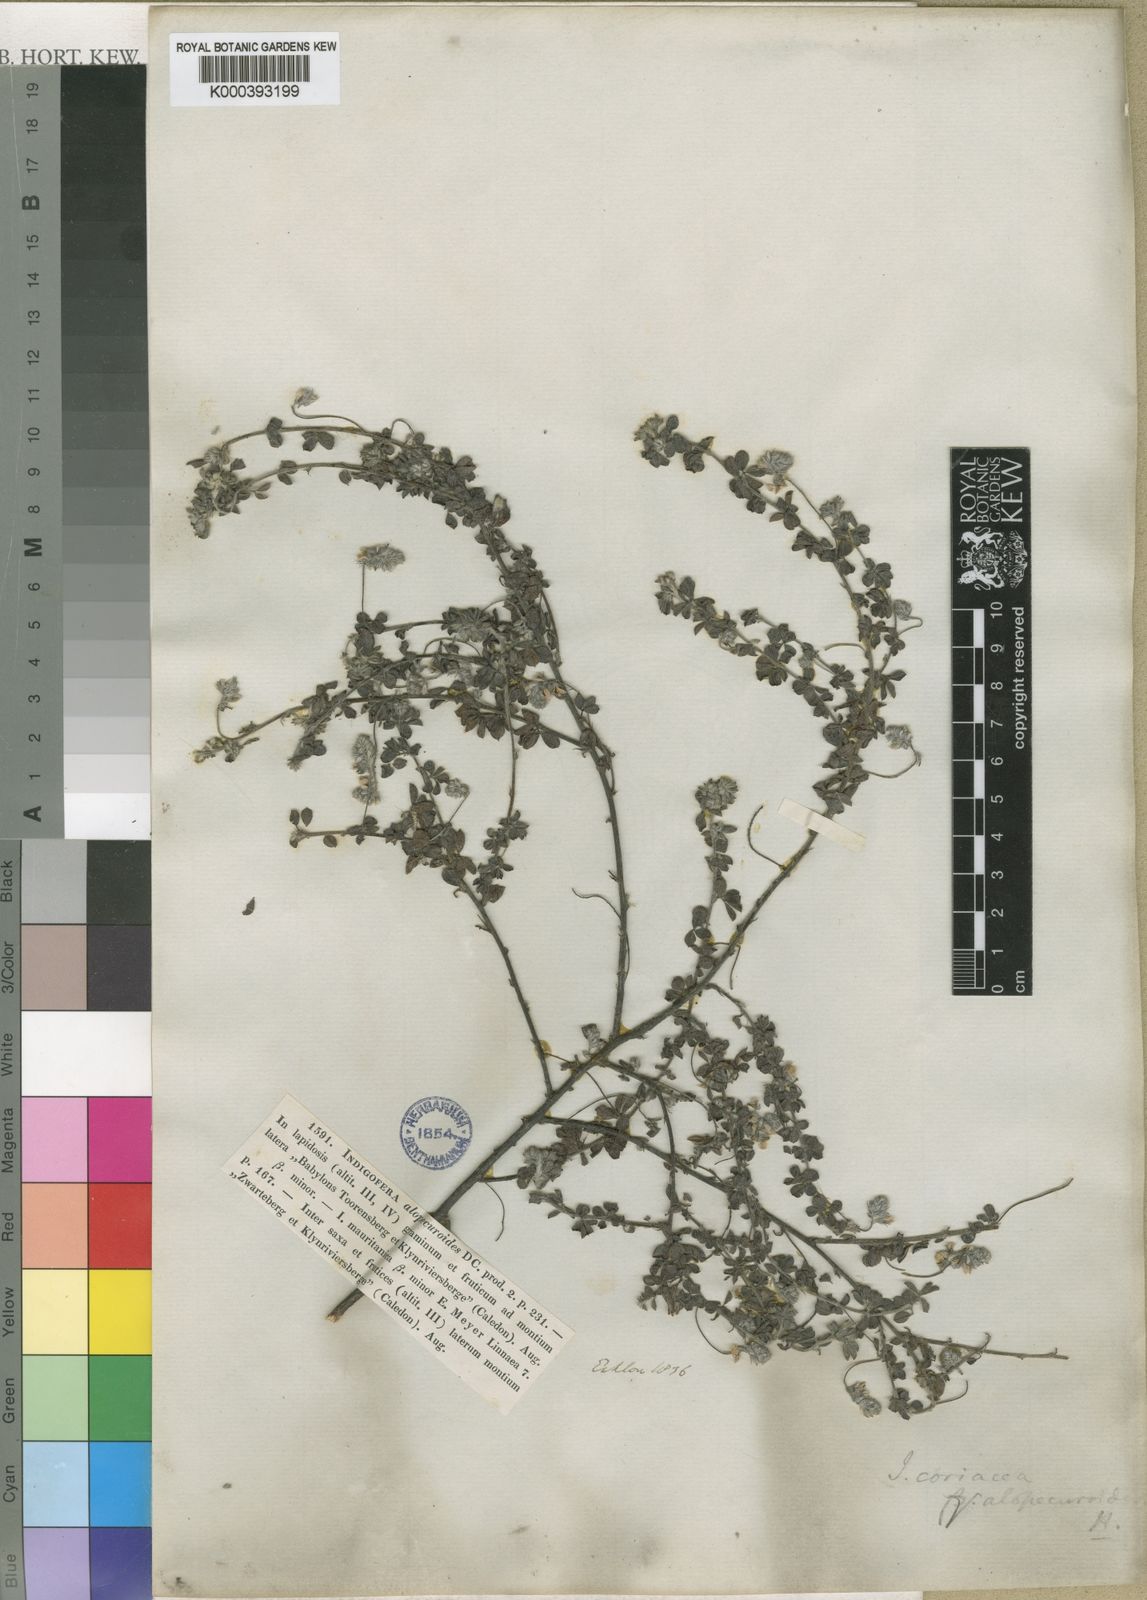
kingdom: Plantae
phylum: Tracheophyta
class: Magnoliopsida
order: Fabales
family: Fabaceae
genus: Indigofera
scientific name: Indigofera alopecuroides
